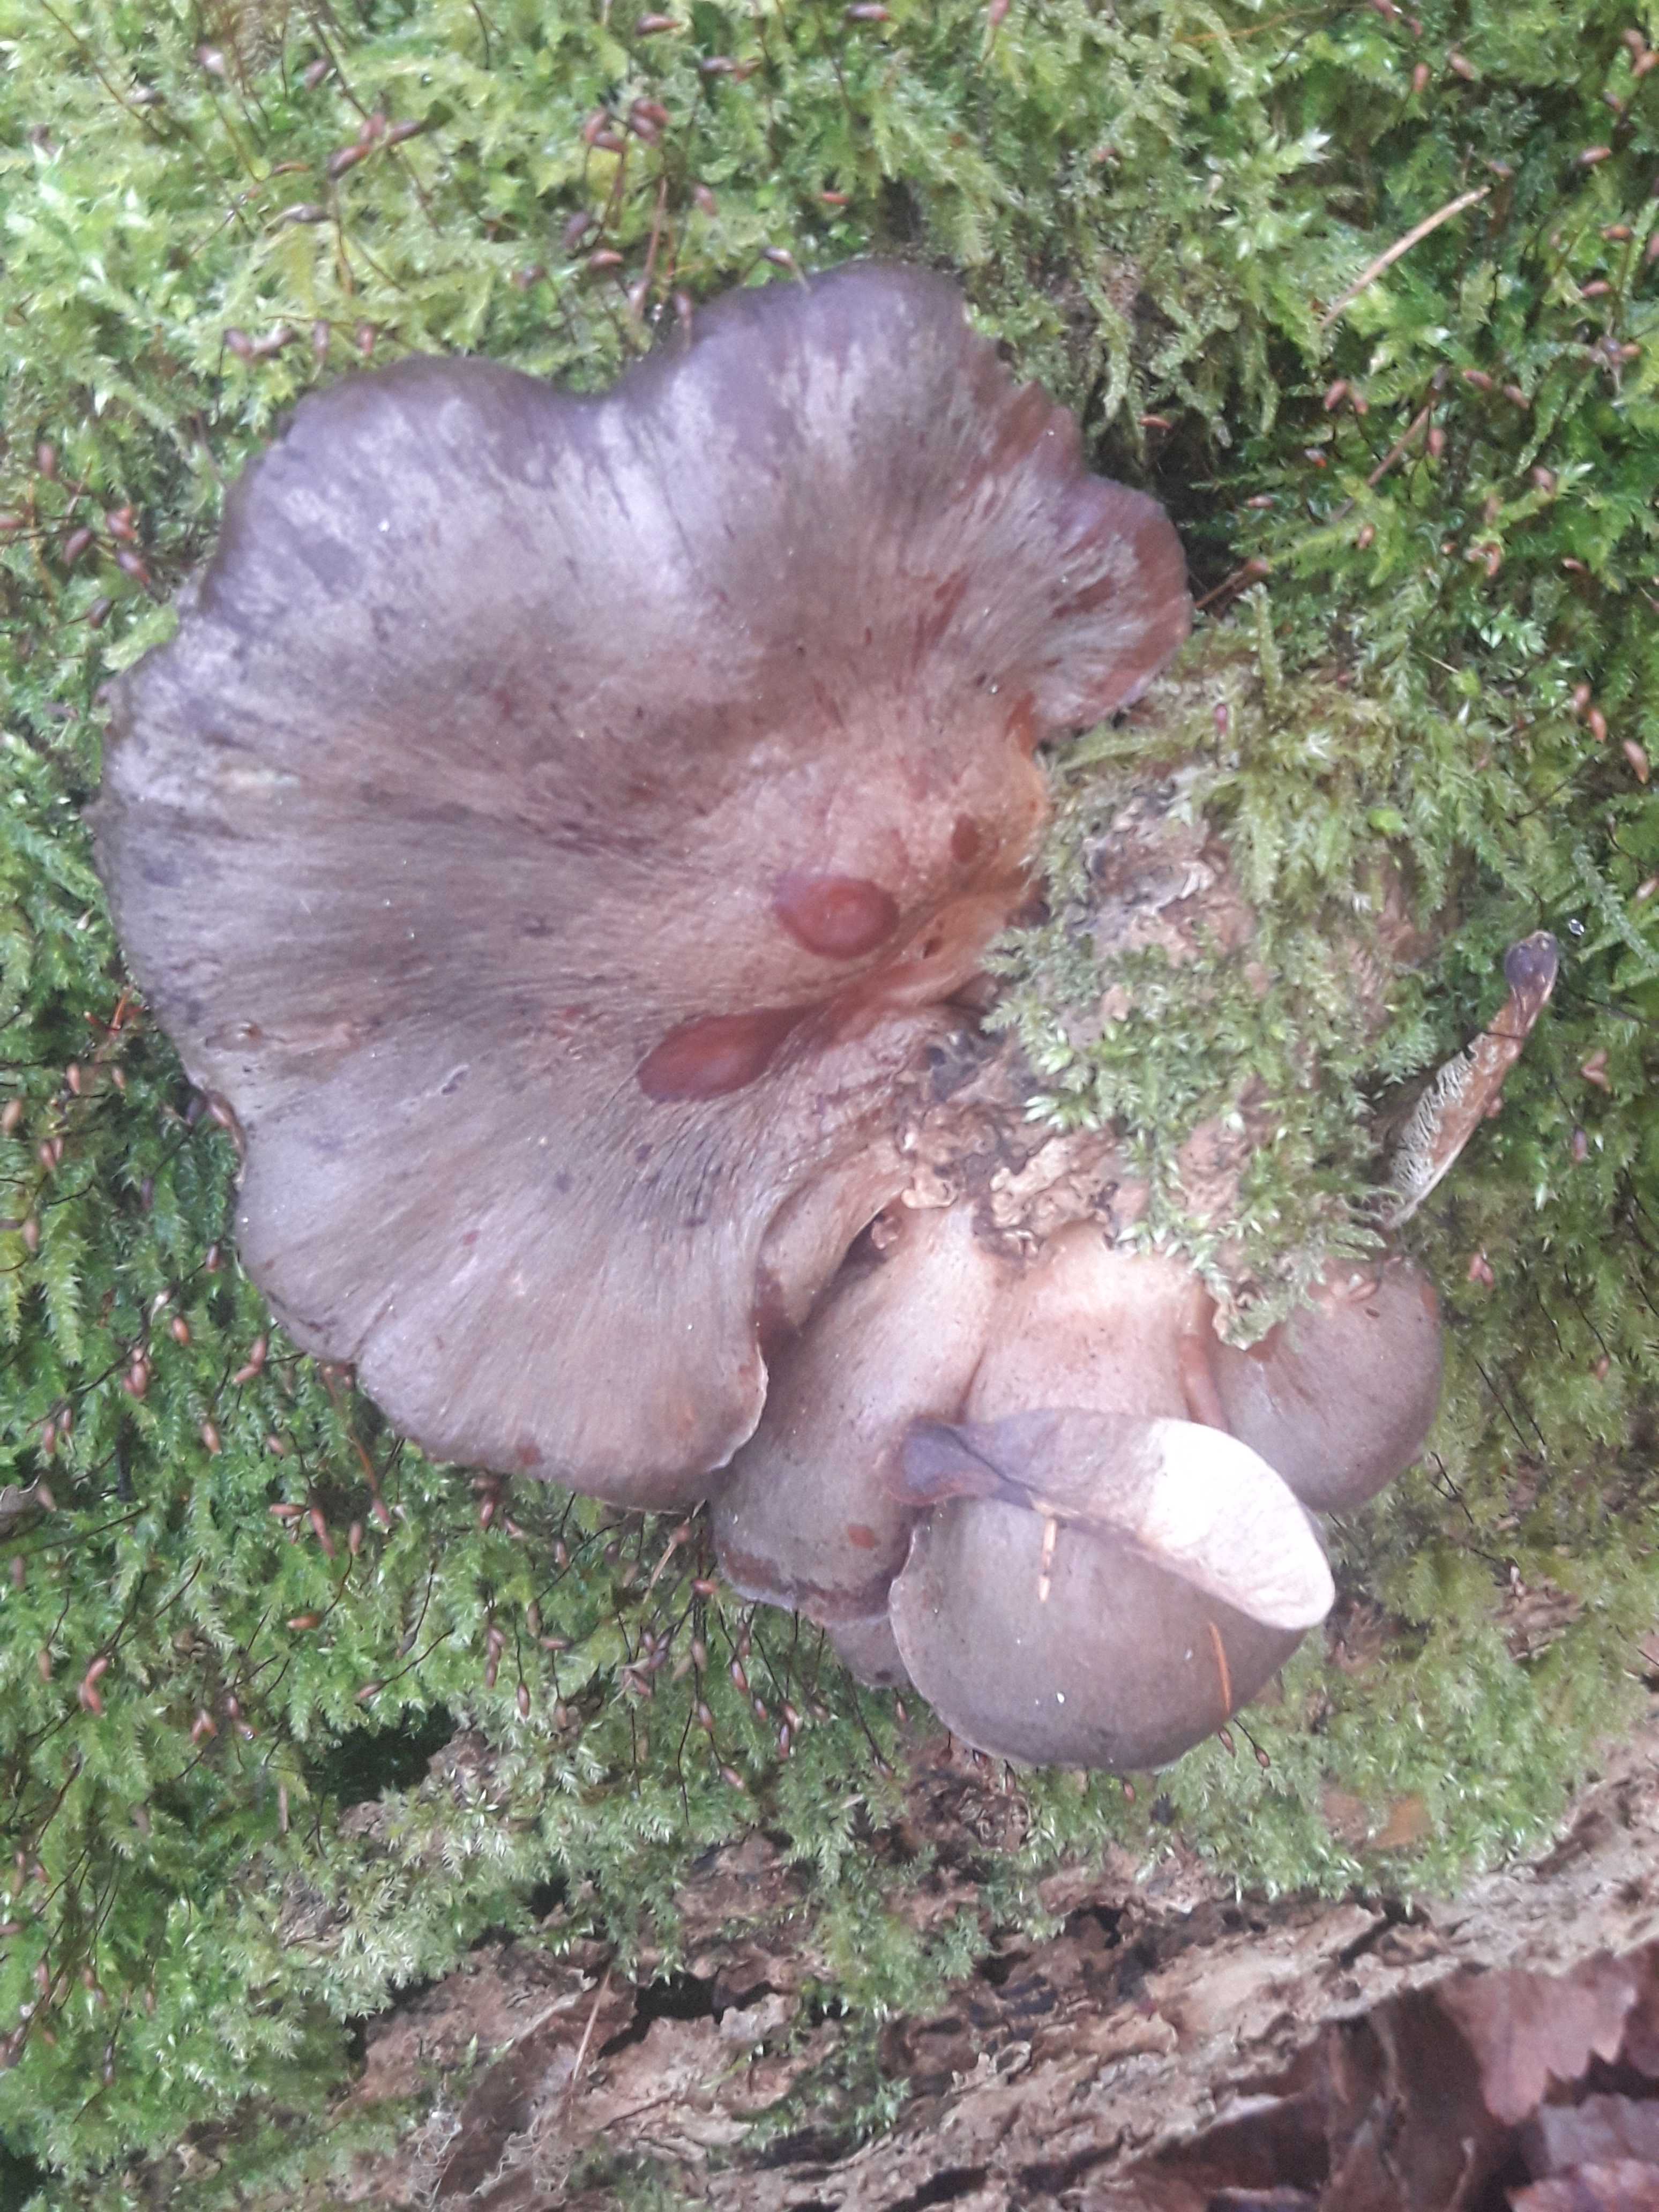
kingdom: Fungi
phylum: Basidiomycota
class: Agaricomycetes
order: Agaricales
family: Sarcomyxaceae
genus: Sarcomyxa
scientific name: Sarcomyxa serotina
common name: gummihat
